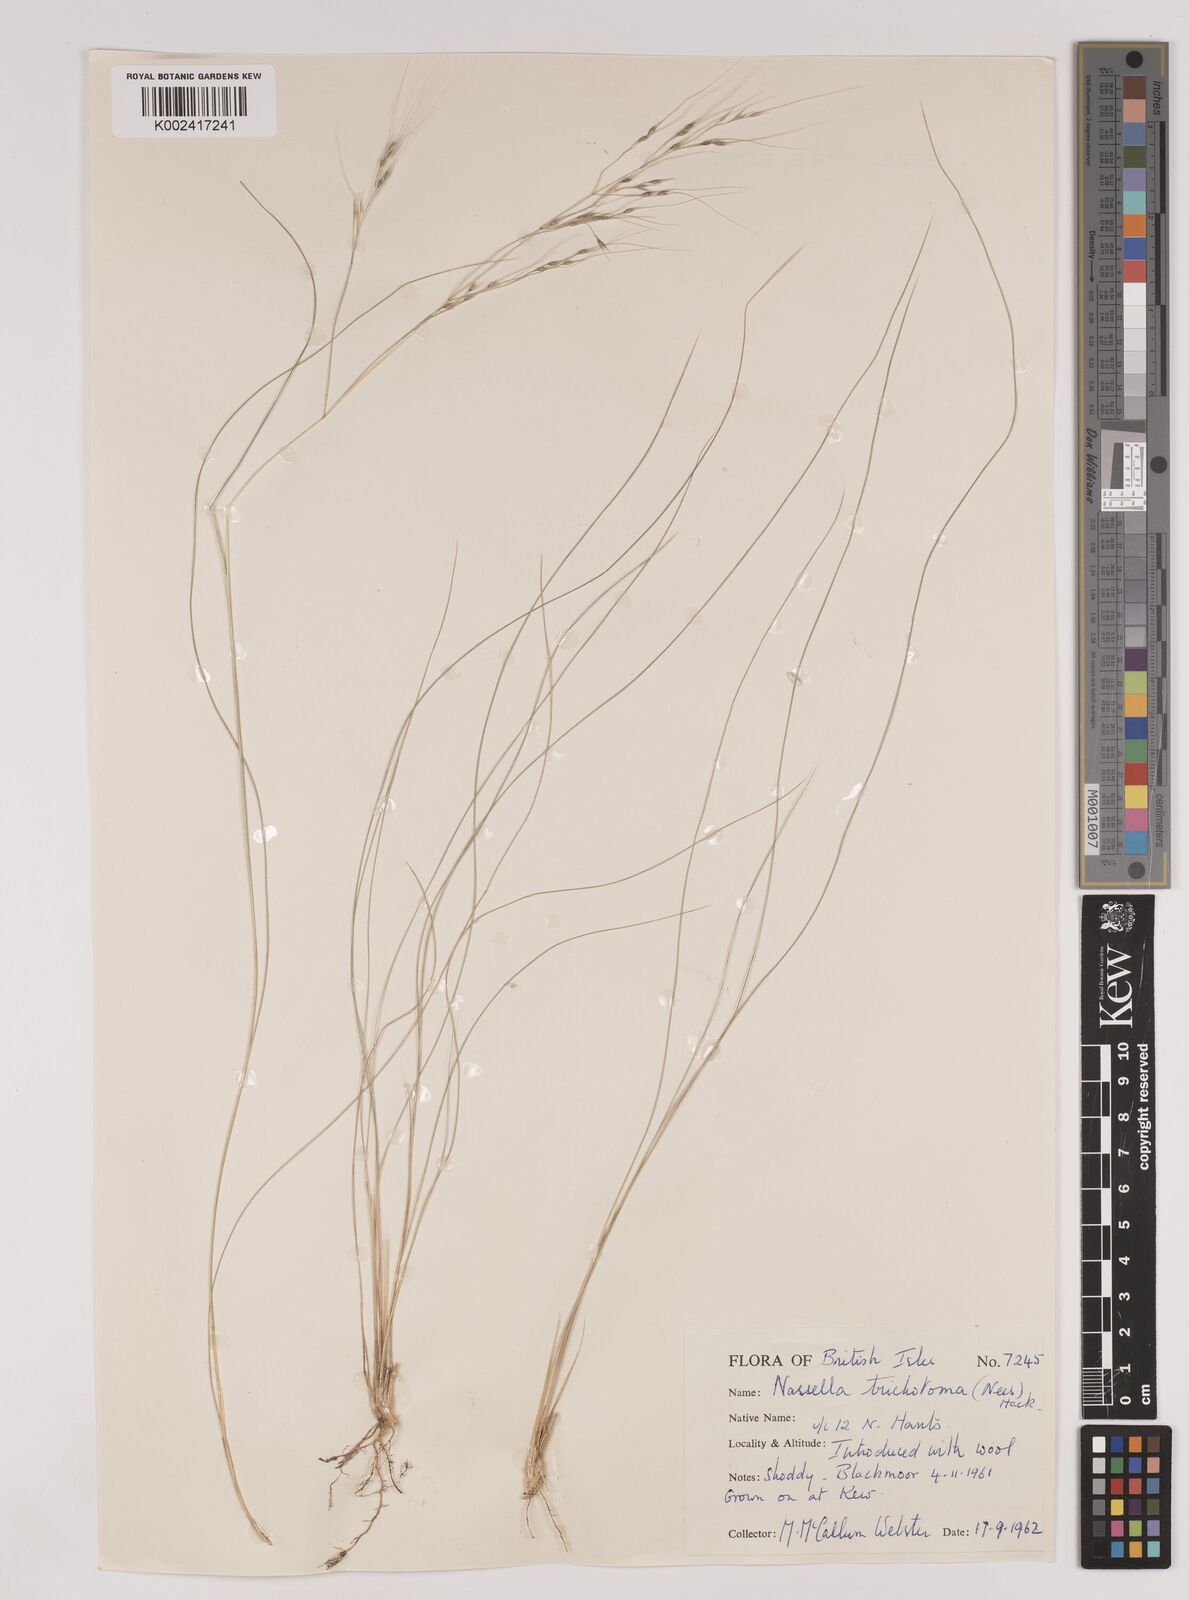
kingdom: Plantae
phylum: Tracheophyta
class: Liliopsida
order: Poales
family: Poaceae
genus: Nassella
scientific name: Nassella trichotoma
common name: Serrated tussock grass
